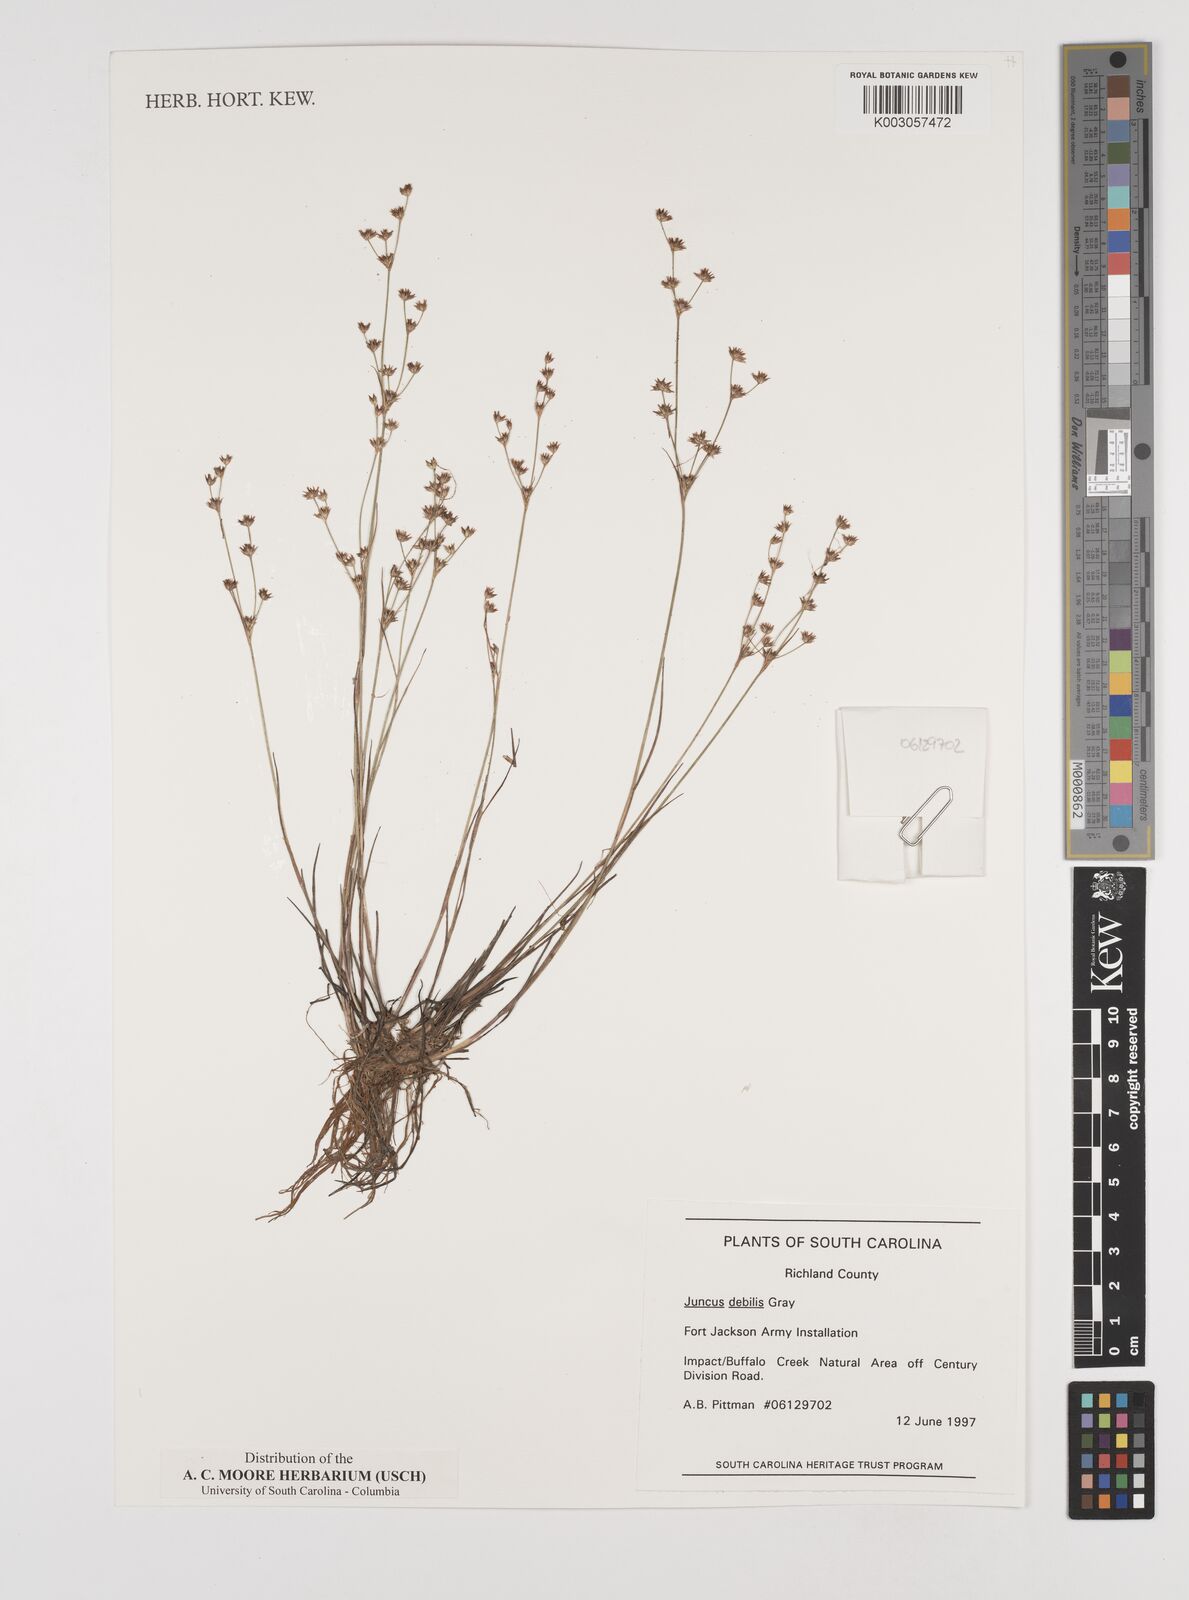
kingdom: Plantae
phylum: Tracheophyta
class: Liliopsida
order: Poales
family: Juncaceae
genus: Juncus
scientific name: Juncus diffusissimus
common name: Slimpod rush
